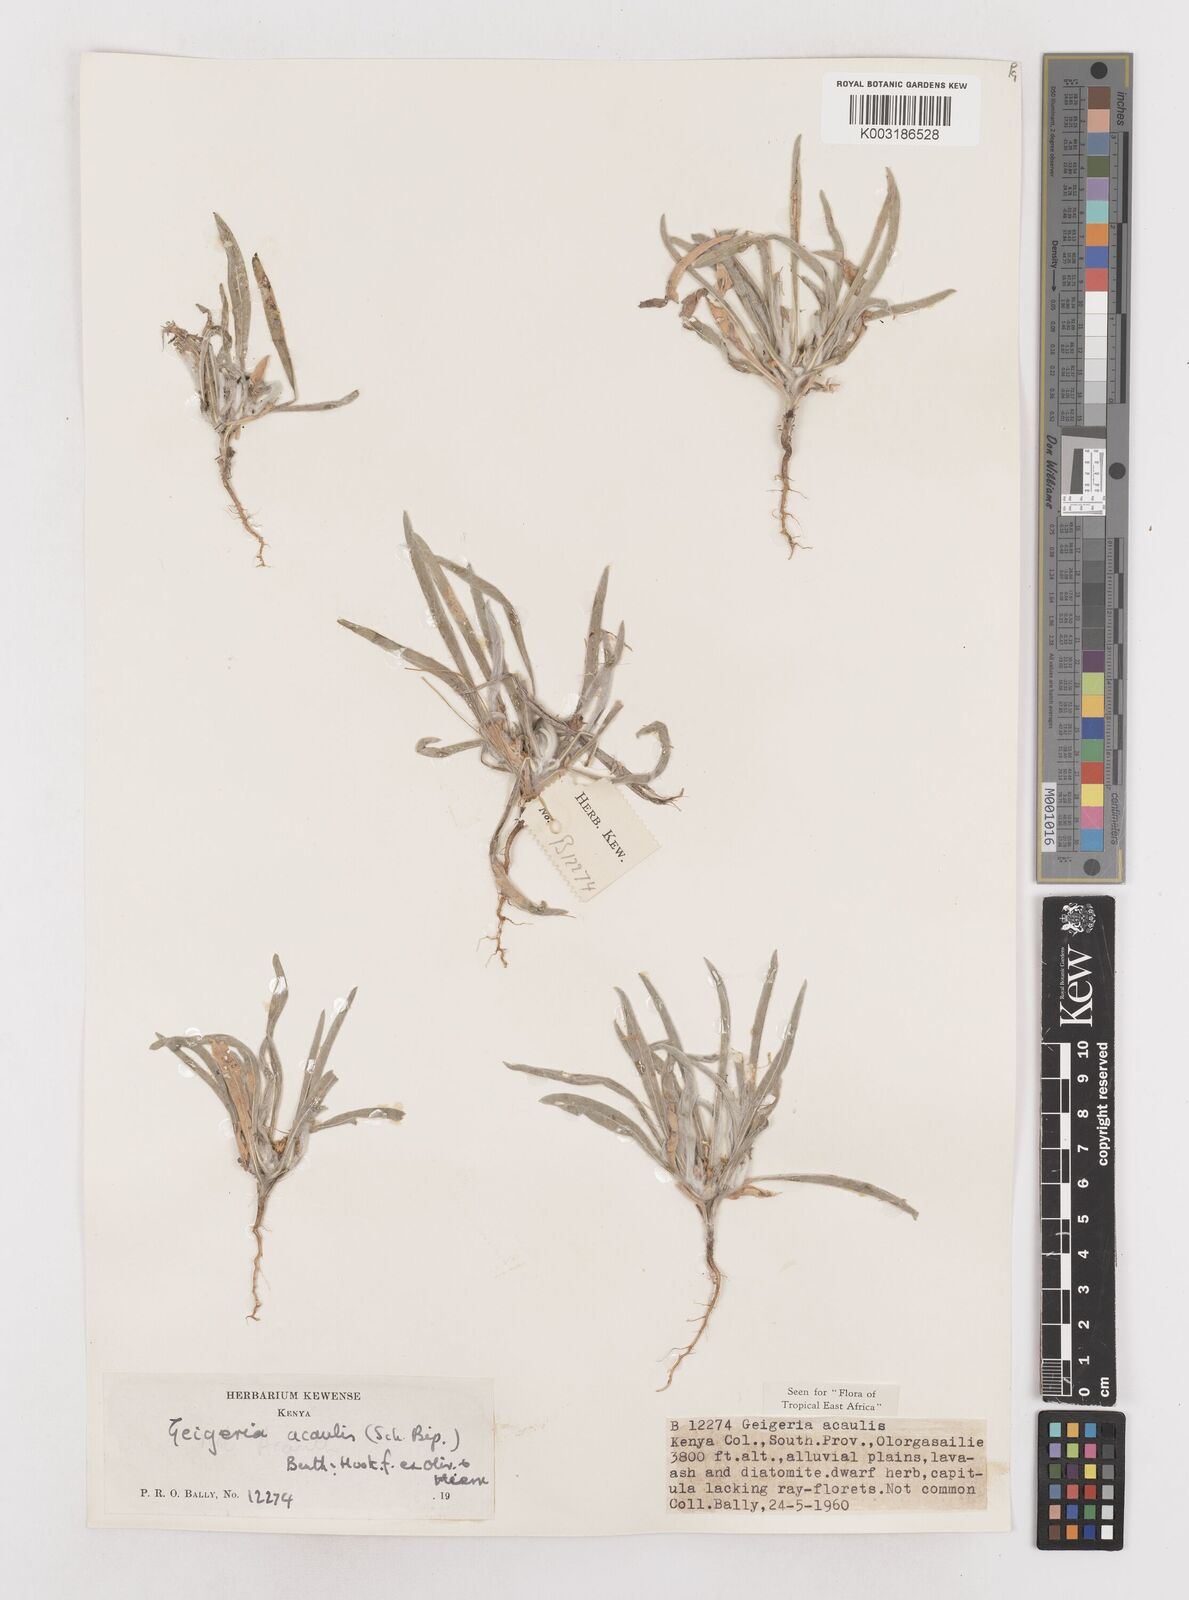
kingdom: Plantae
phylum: Tracheophyta
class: Magnoliopsida
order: Asterales
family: Asteraceae
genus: Geigeria
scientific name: Geigeria acaulis
